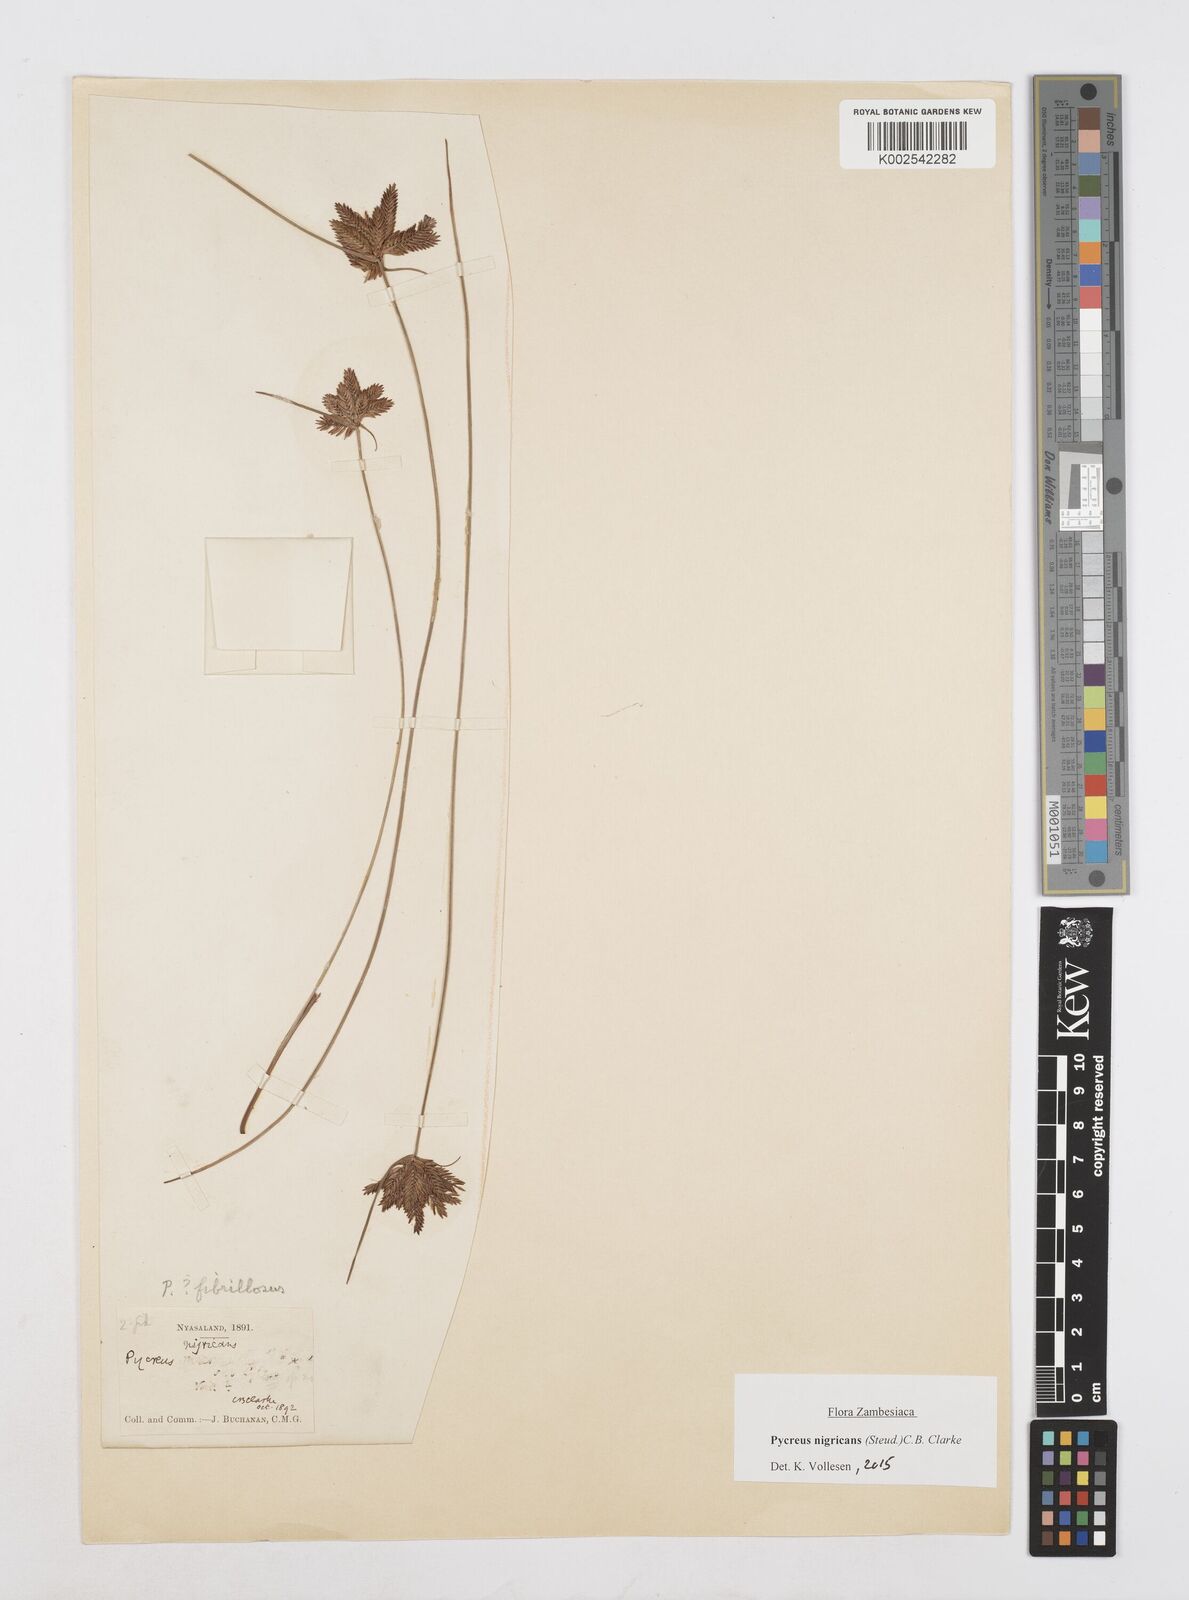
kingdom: Plantae
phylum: Tracheophyta
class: Liliopsida
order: Poales
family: Cyperaceae
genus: Cyperus
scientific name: Cyperus nigricans
